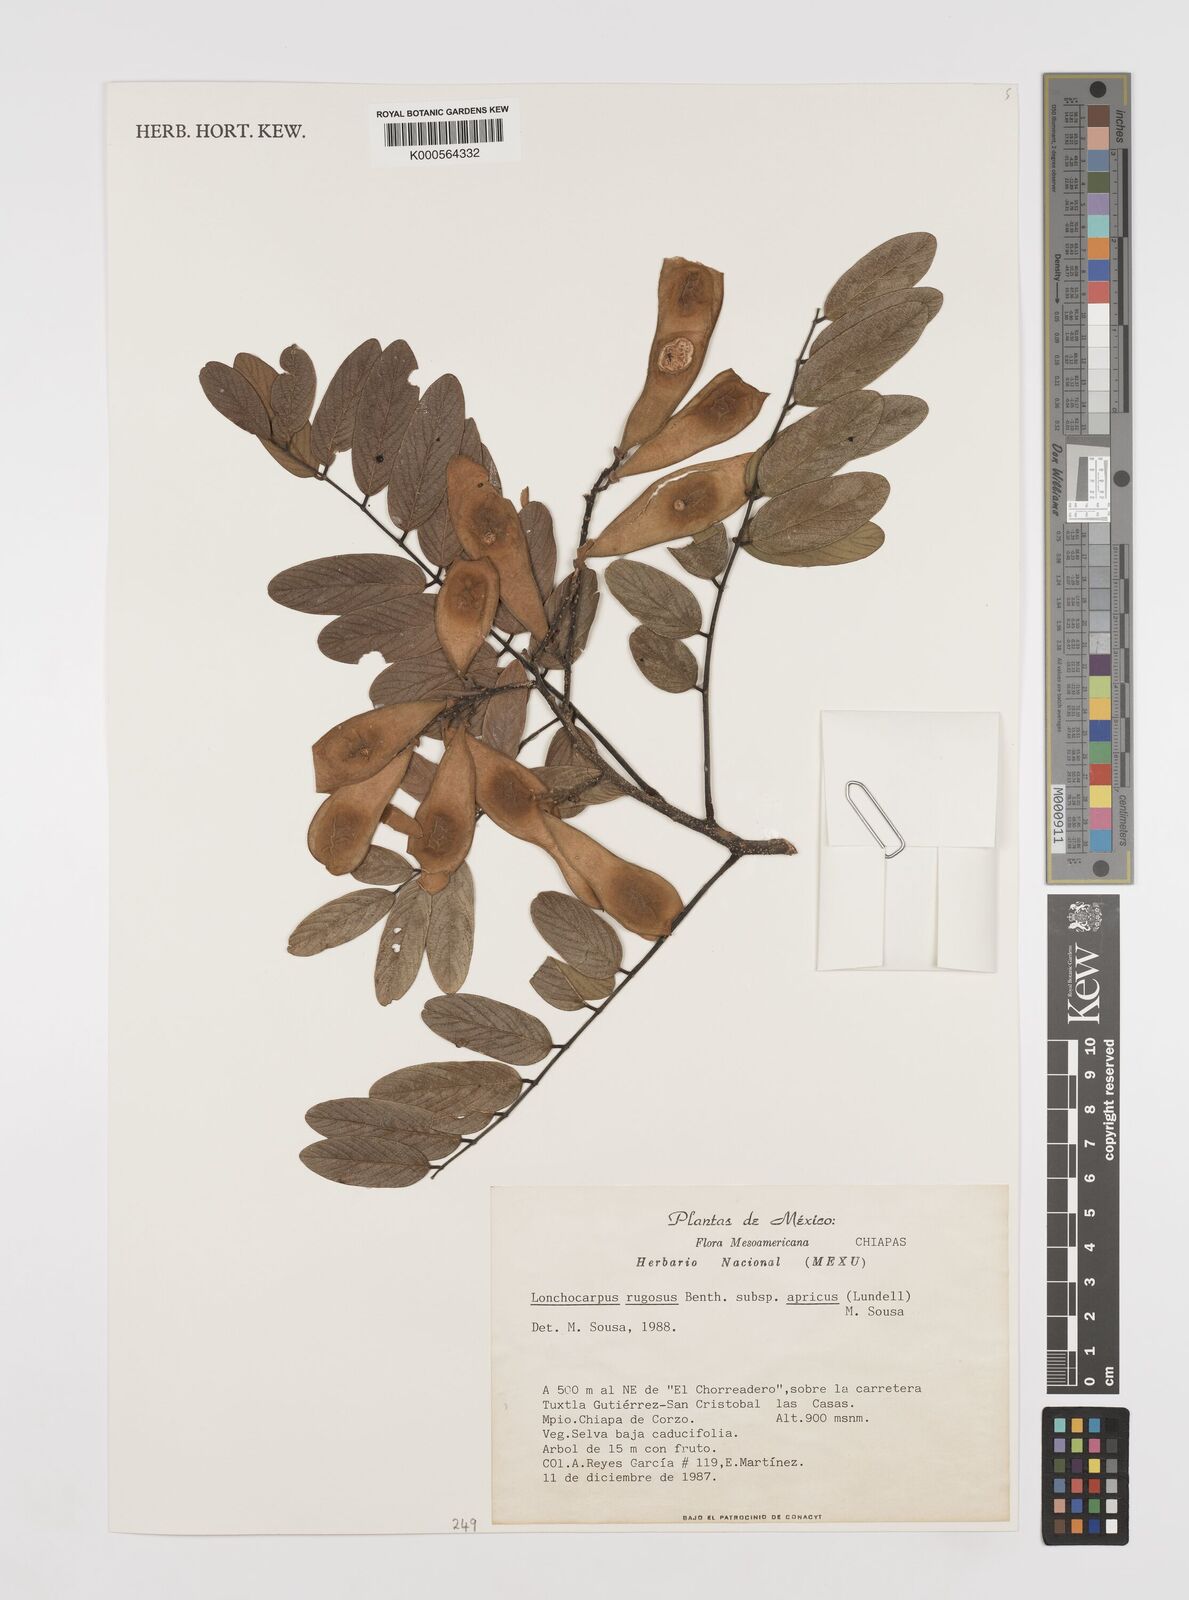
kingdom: Plantae
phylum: Tracheophyta
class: Magnoliopsida
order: Fabales
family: Fabaceae
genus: Lonchocarpus
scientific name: Lonchocarpus rugosus
